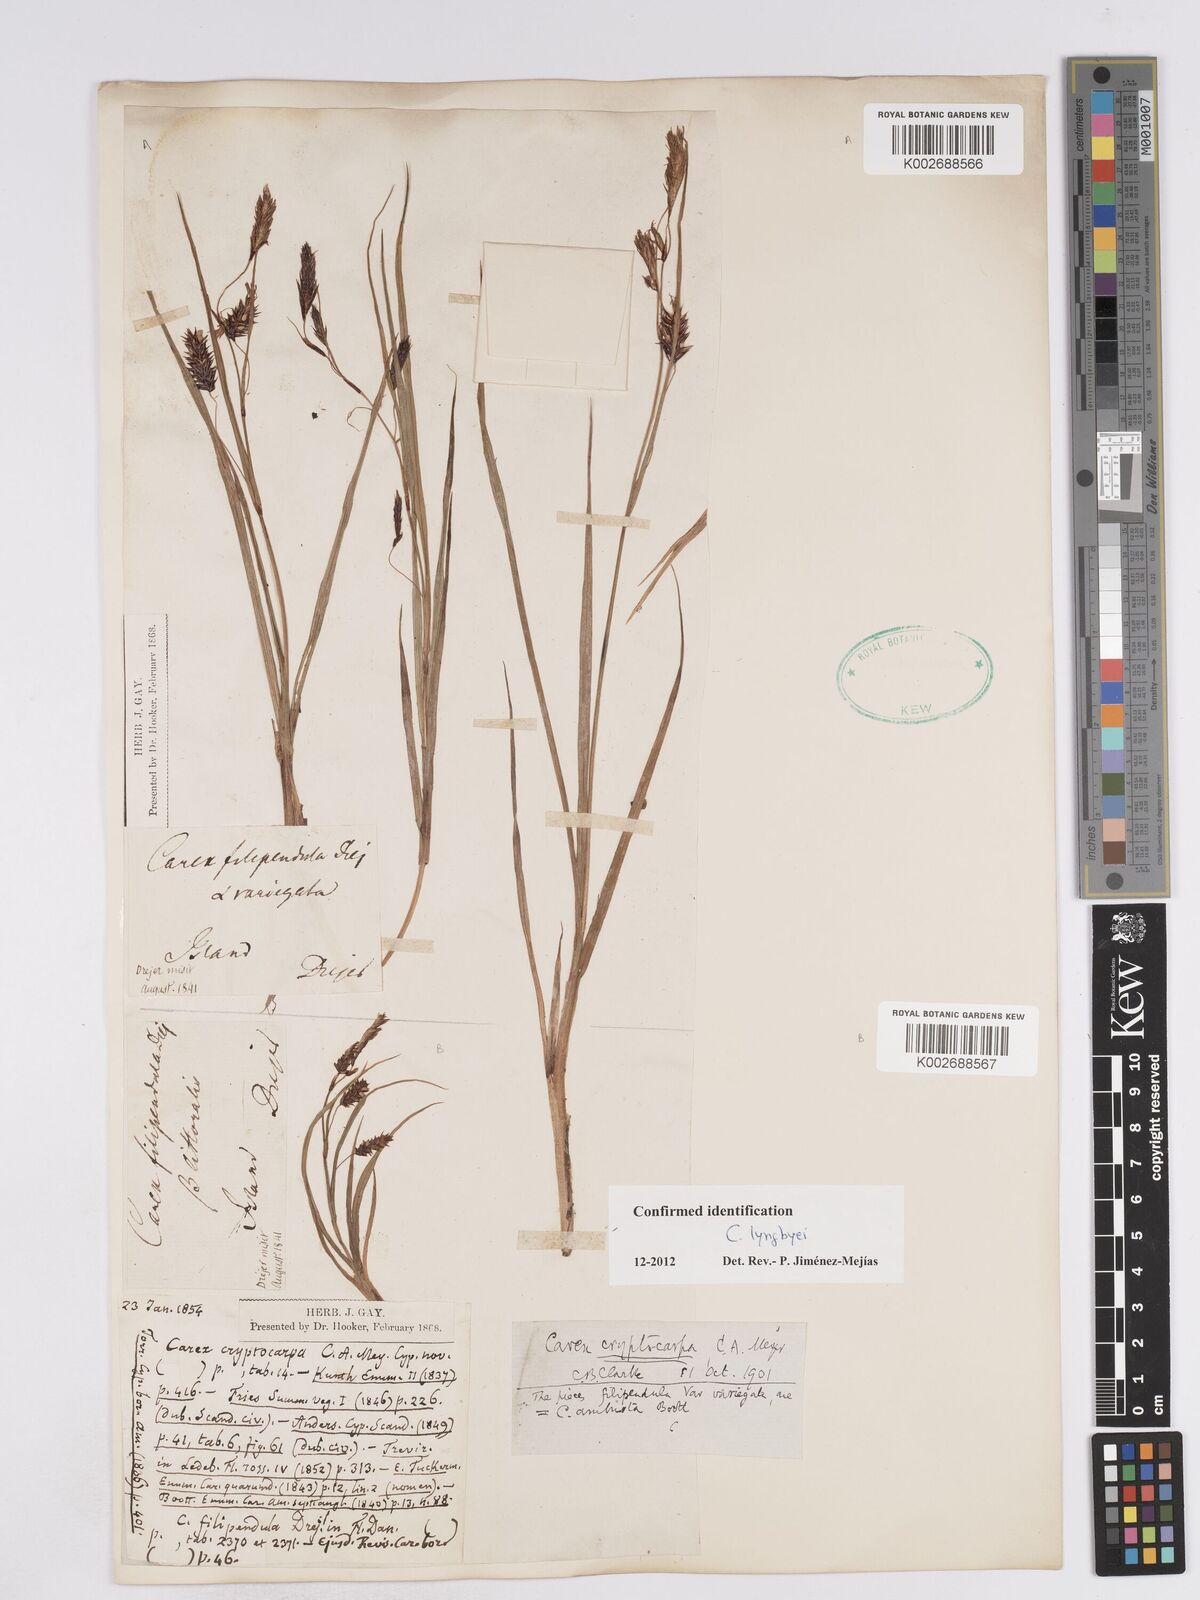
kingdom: Plantae
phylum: Tracheophyta
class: Liliopsida
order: Poales
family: Cyperaceae
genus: Carex
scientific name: Carex lyngbyei
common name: Lyngbye's sedge
